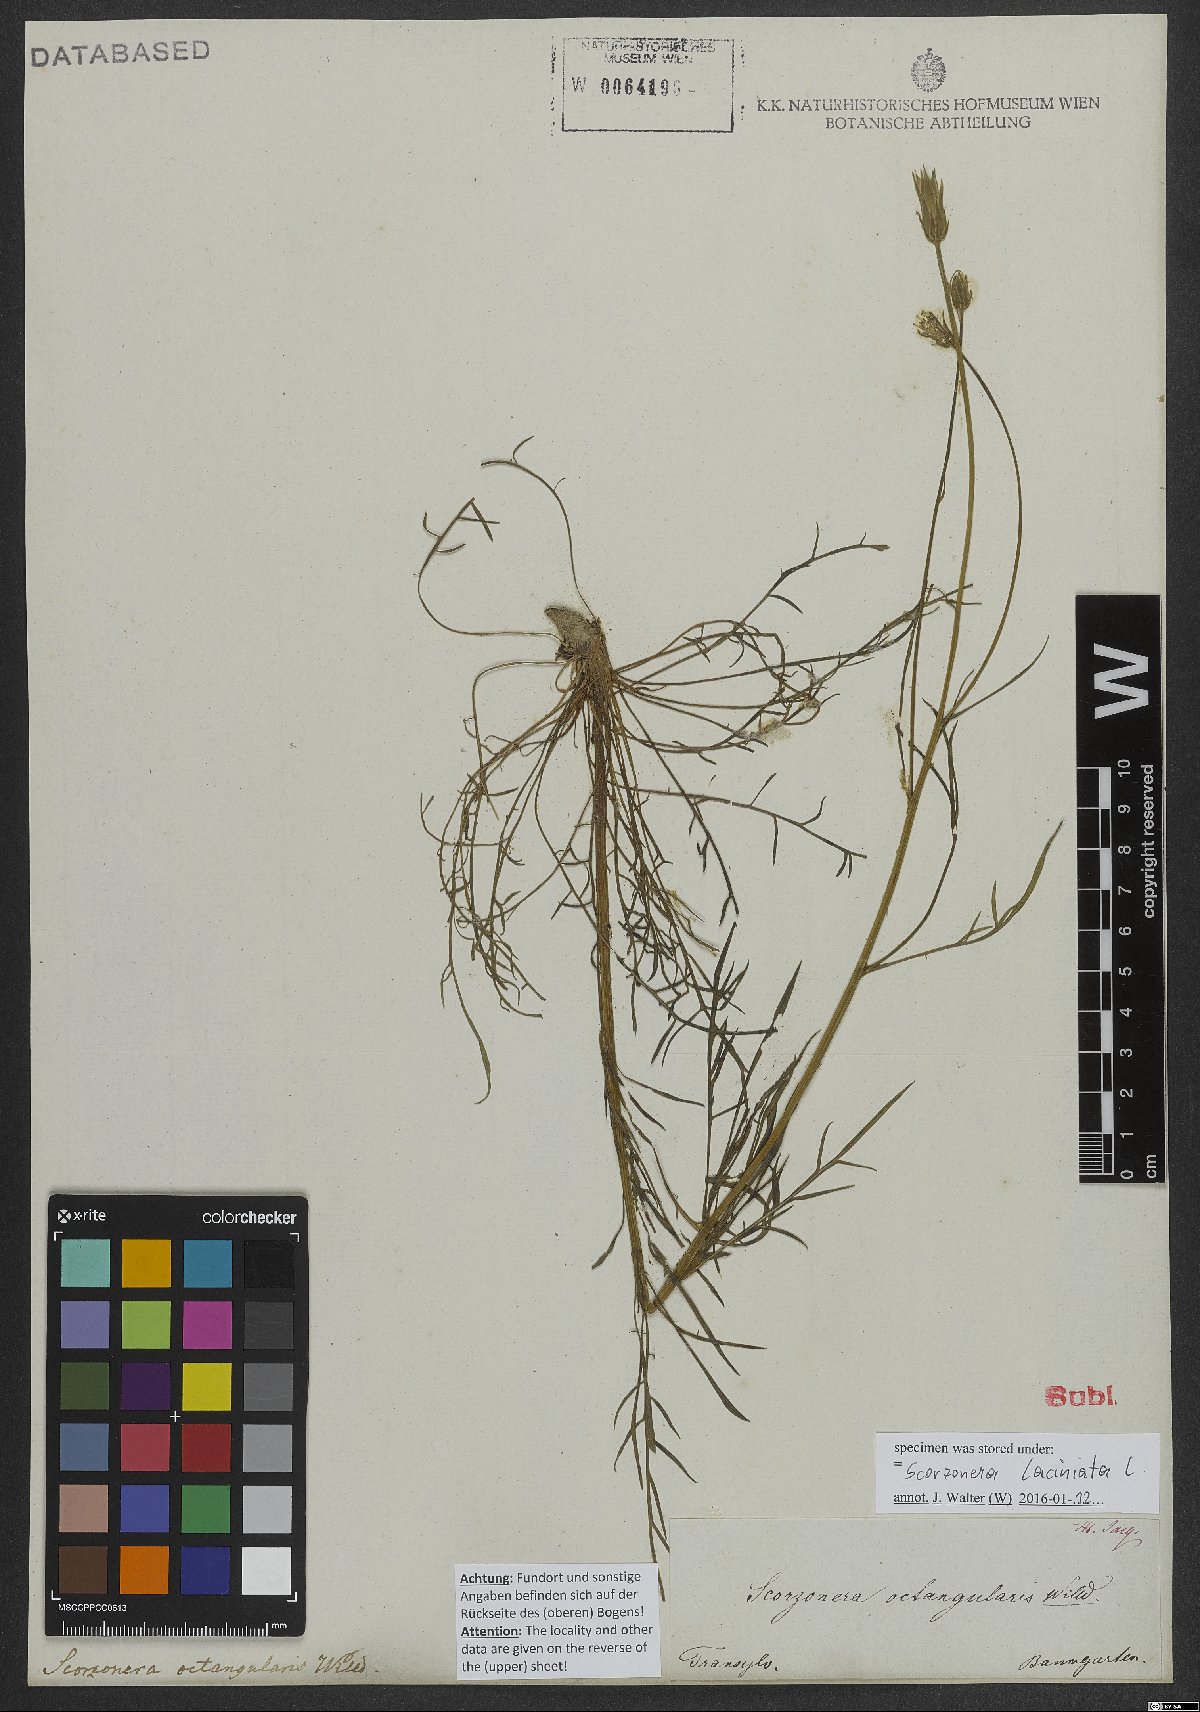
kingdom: Plantae
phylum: Tracheophyta
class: Magnoliopsida
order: Asterales
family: Asteraceae
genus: Scorzonera
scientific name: Scorzonera laciniata
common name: Cutleaf vipergrass
